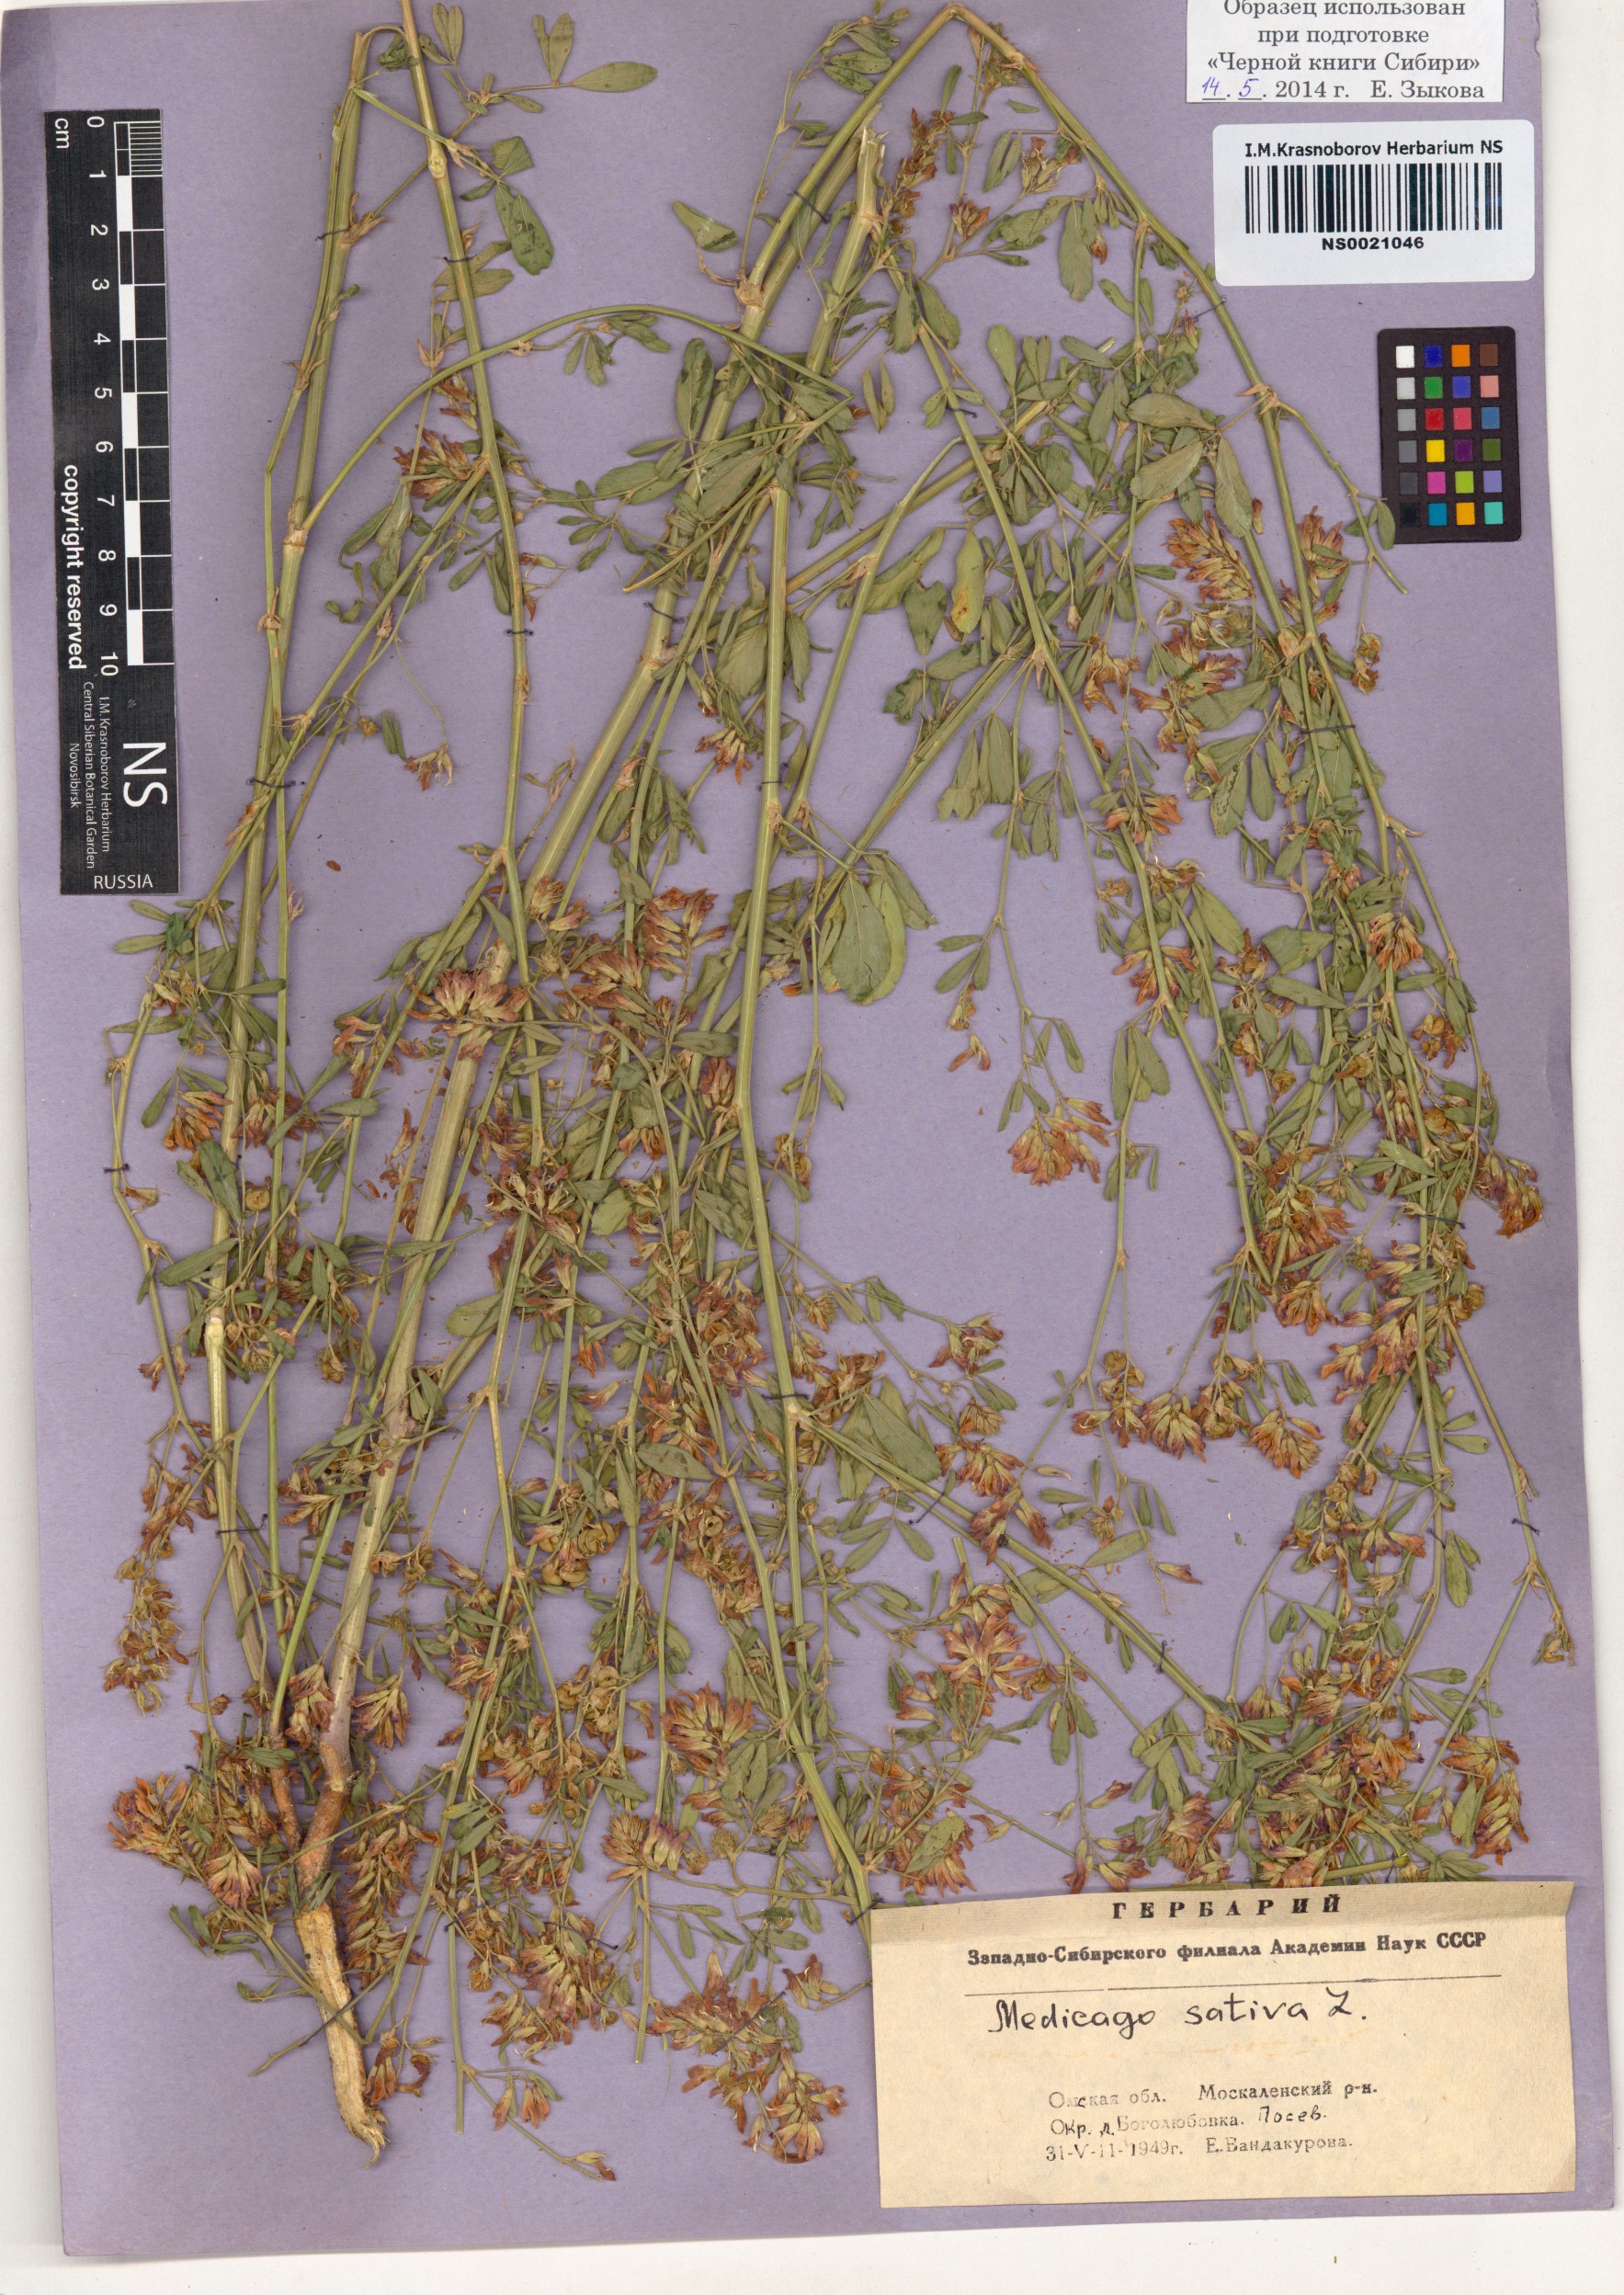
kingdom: Plantae
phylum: Tracheophyta
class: Magnoliopsida
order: Fabales
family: Fabaceae
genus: Medicago
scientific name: Medicago sativa
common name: Alfalfa
